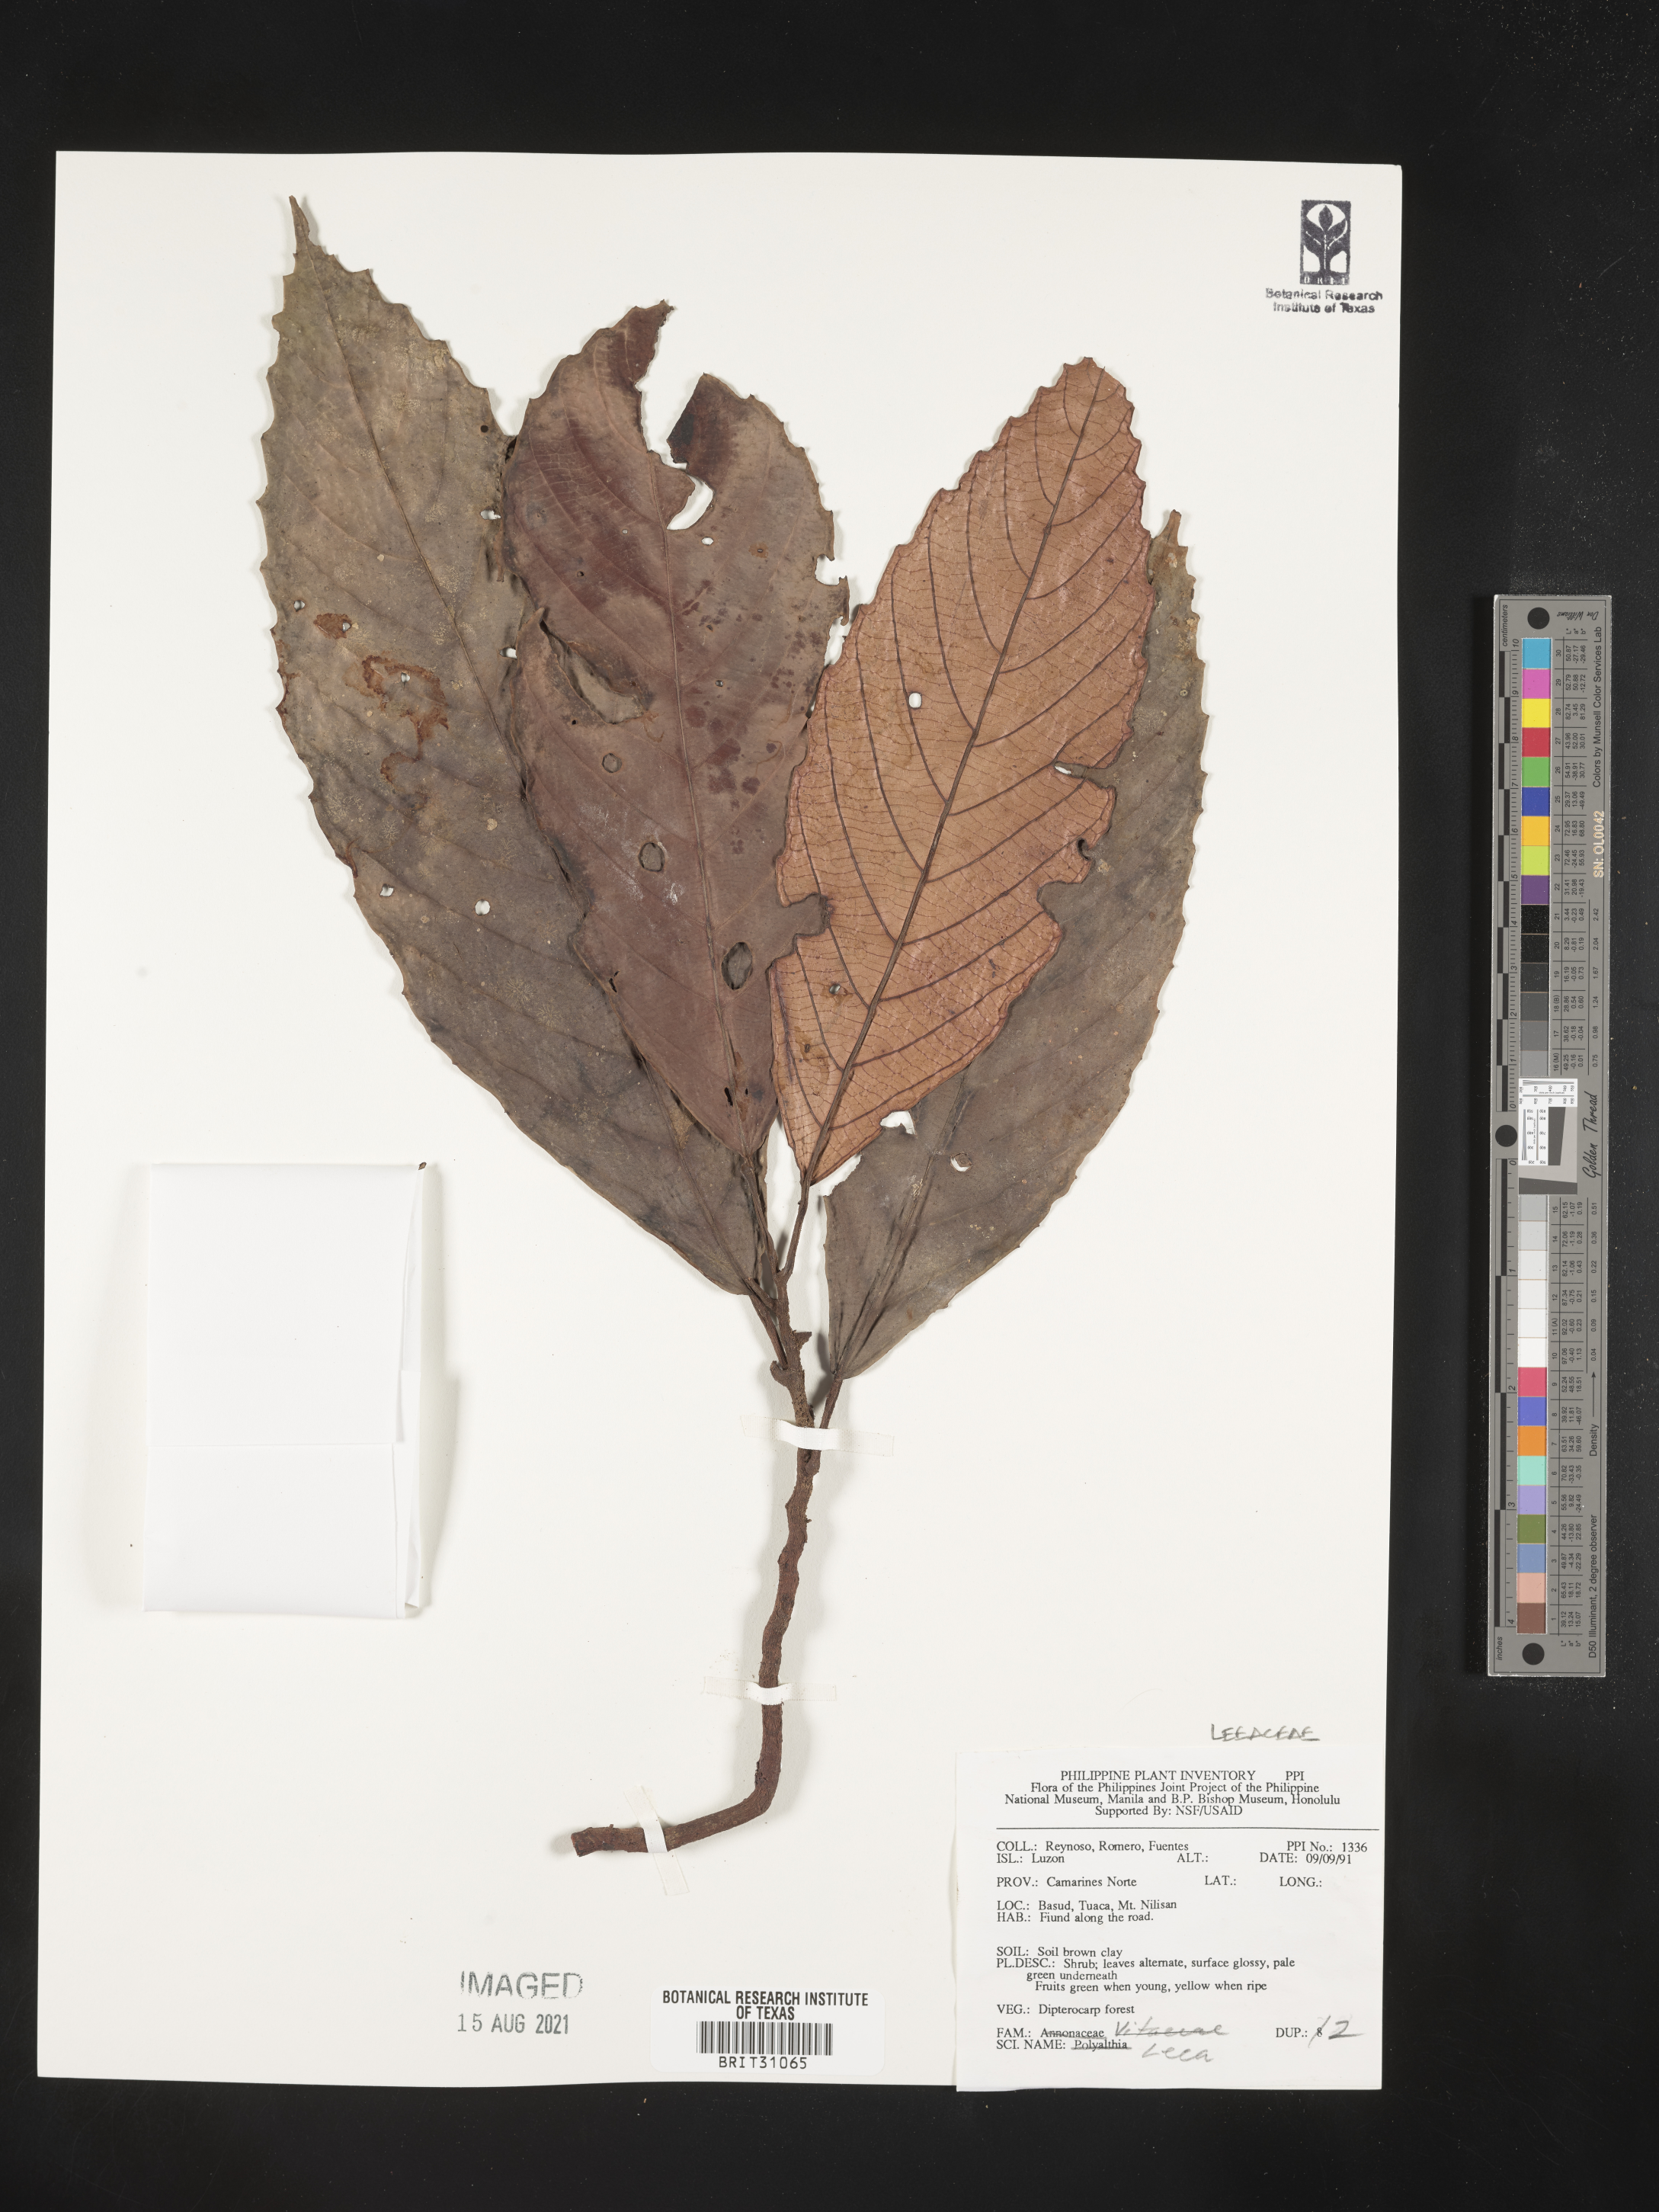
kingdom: Plantae
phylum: Tracheophyta
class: Magnoliopsida
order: Vitales
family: Vitaceae
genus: Leea
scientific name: Leea
